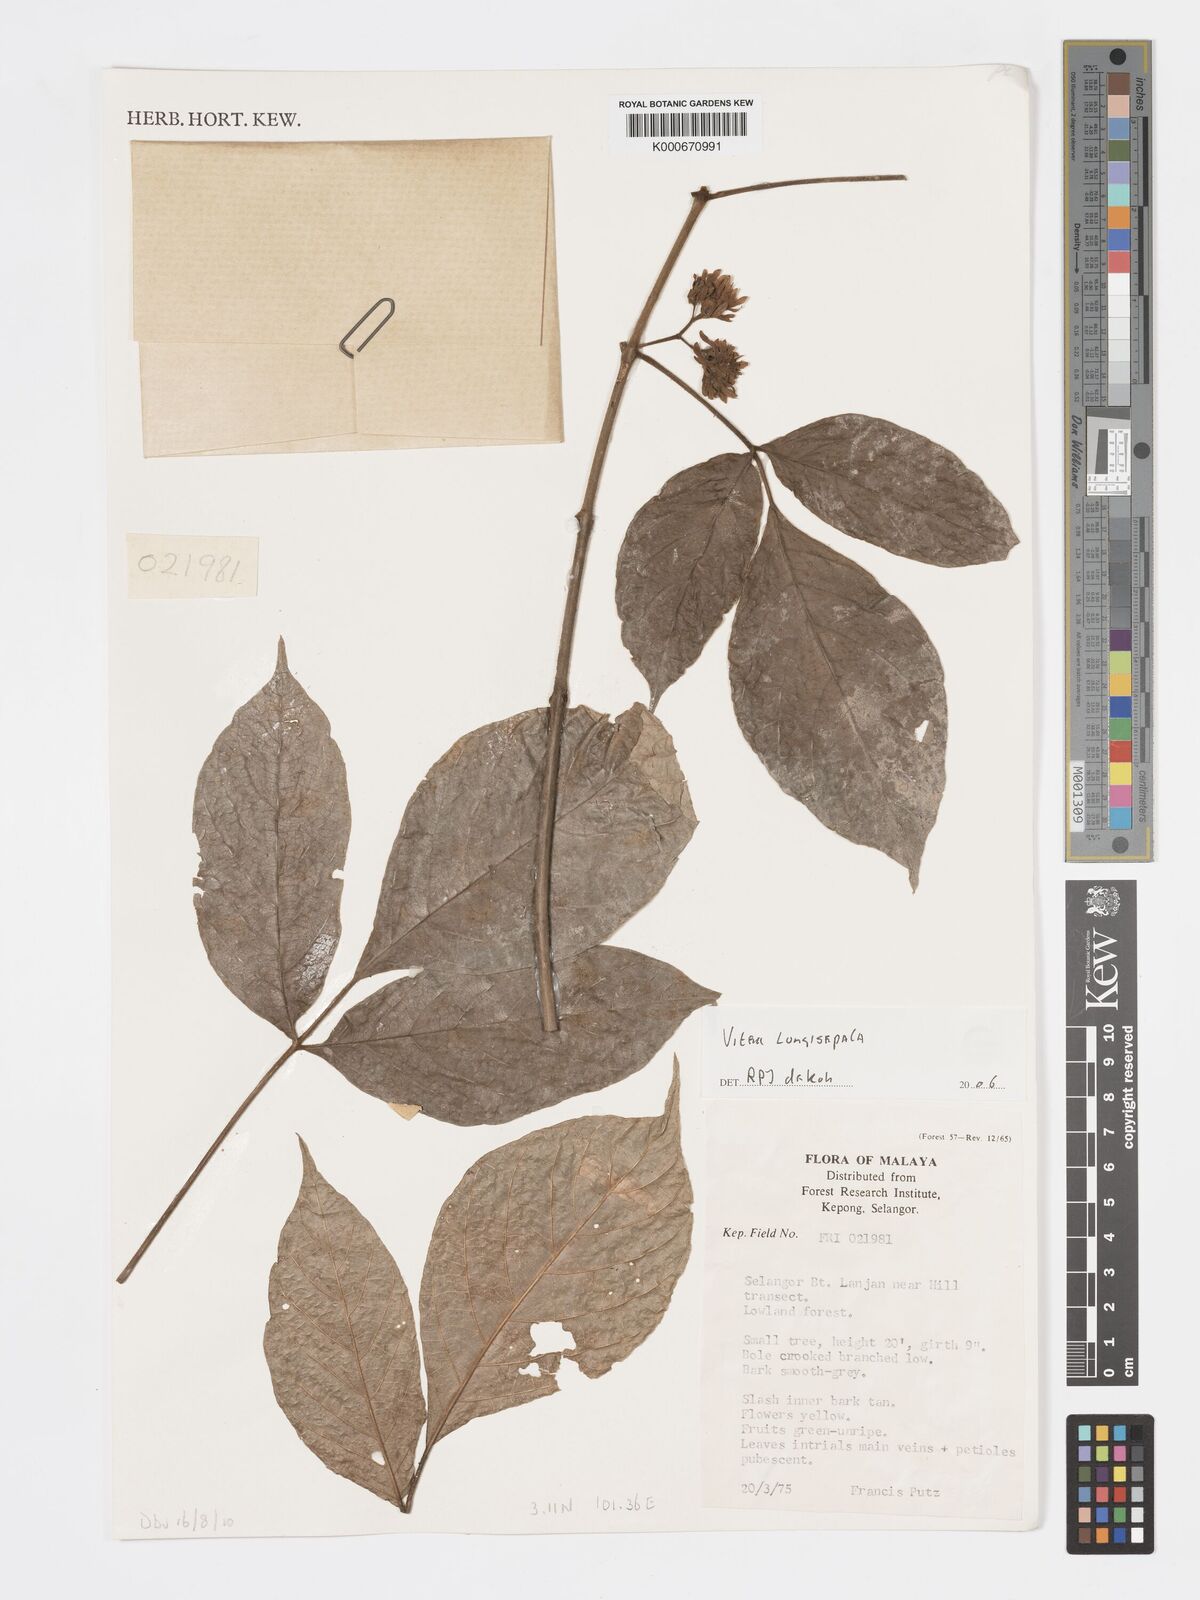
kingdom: Plantae
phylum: Tracheophyta
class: Magnoliopsida
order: Lamiales
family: Lamiaceae
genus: Vitex
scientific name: Vitex longisepala
